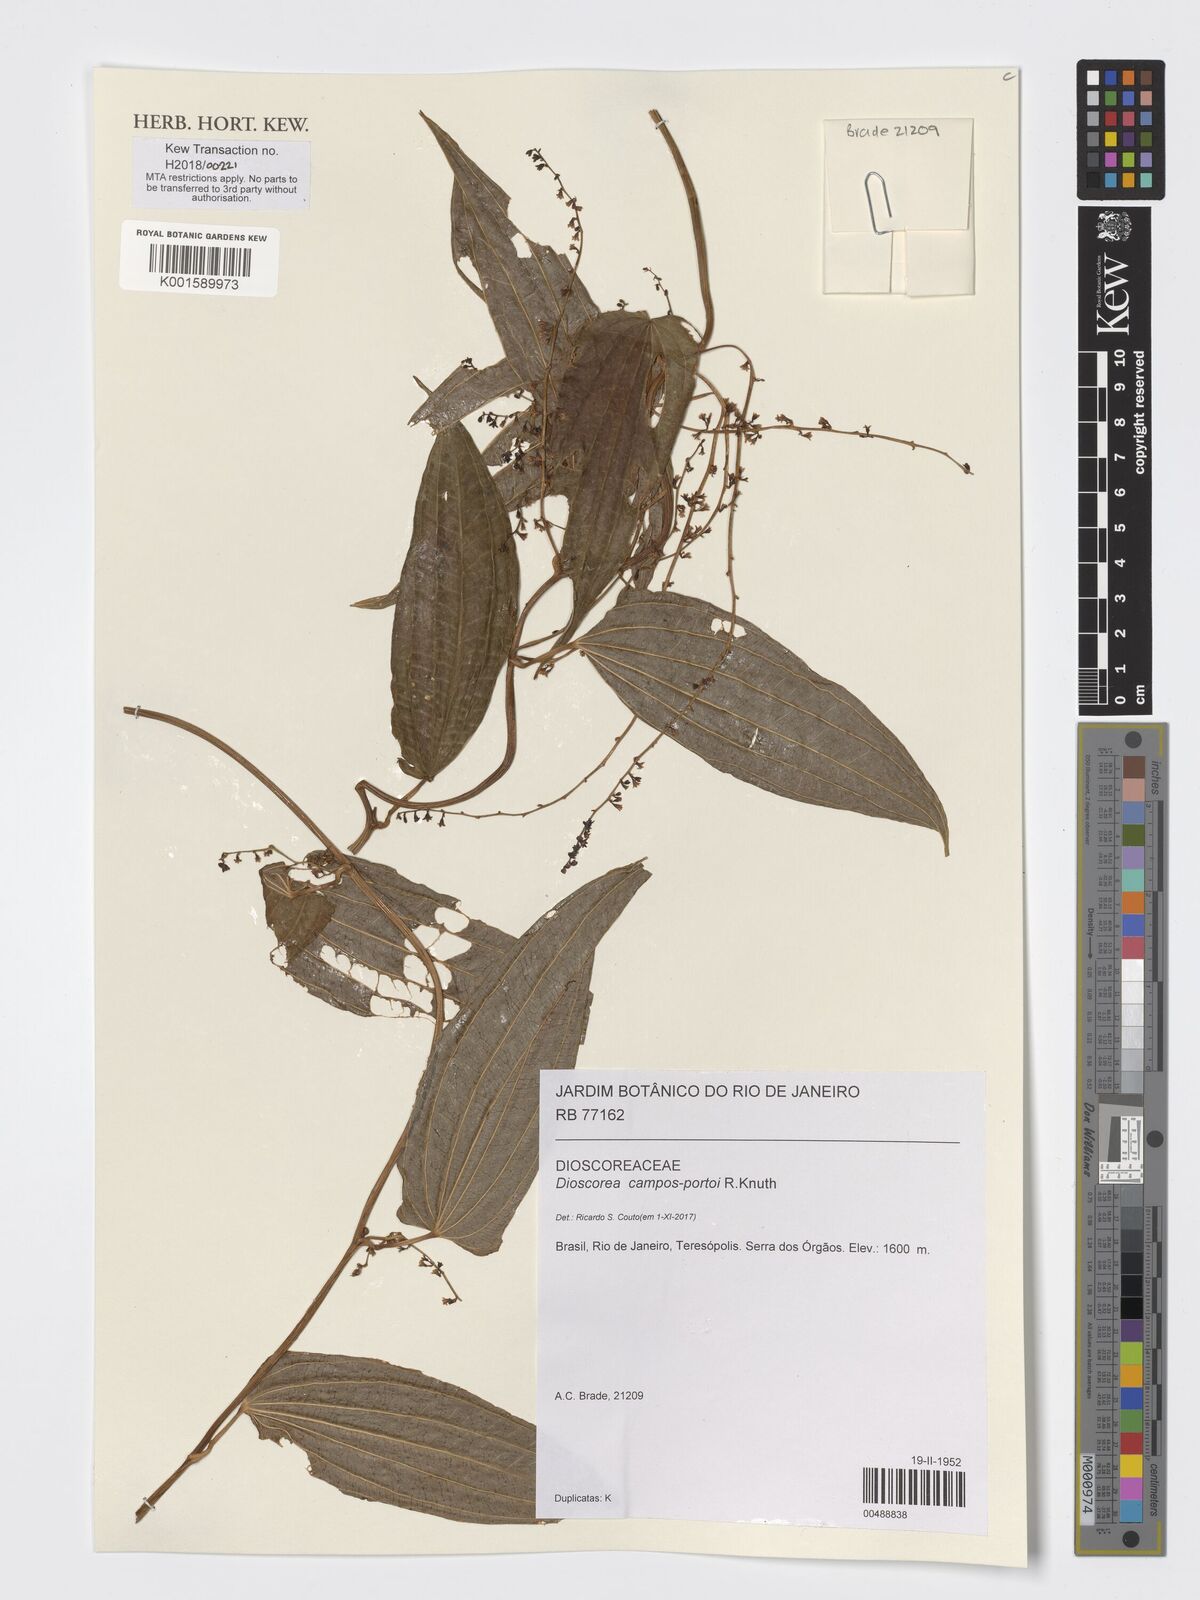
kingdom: Plantae
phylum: Tracheophyta
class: Liliopsida
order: Dioscoreales
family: Dioscoreaceae
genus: Dioscorea
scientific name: Dioscorea campos-portoi
